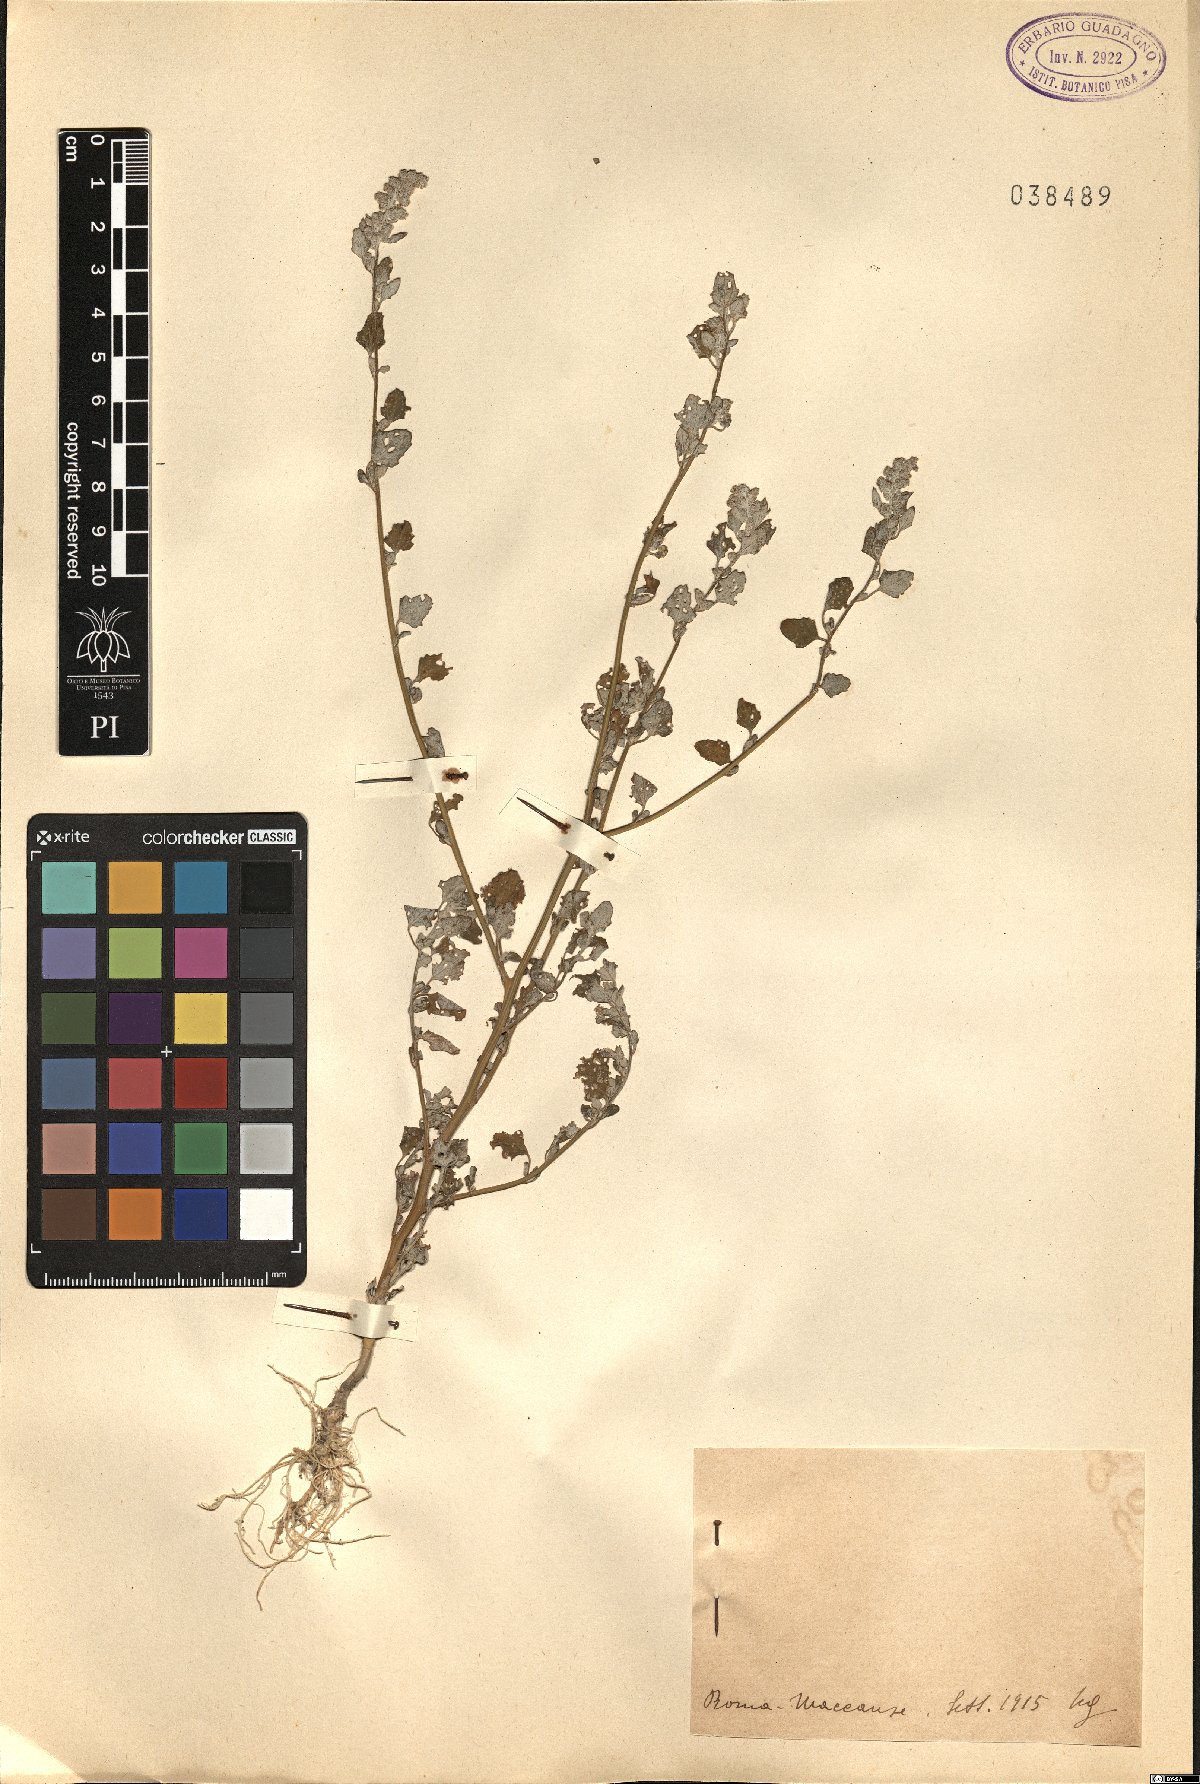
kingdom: Plantae
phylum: Tracheophyta
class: Magnoliopsida
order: Caryophyllales
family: Amaranthaceae
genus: Dysphania
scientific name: Dysphania
